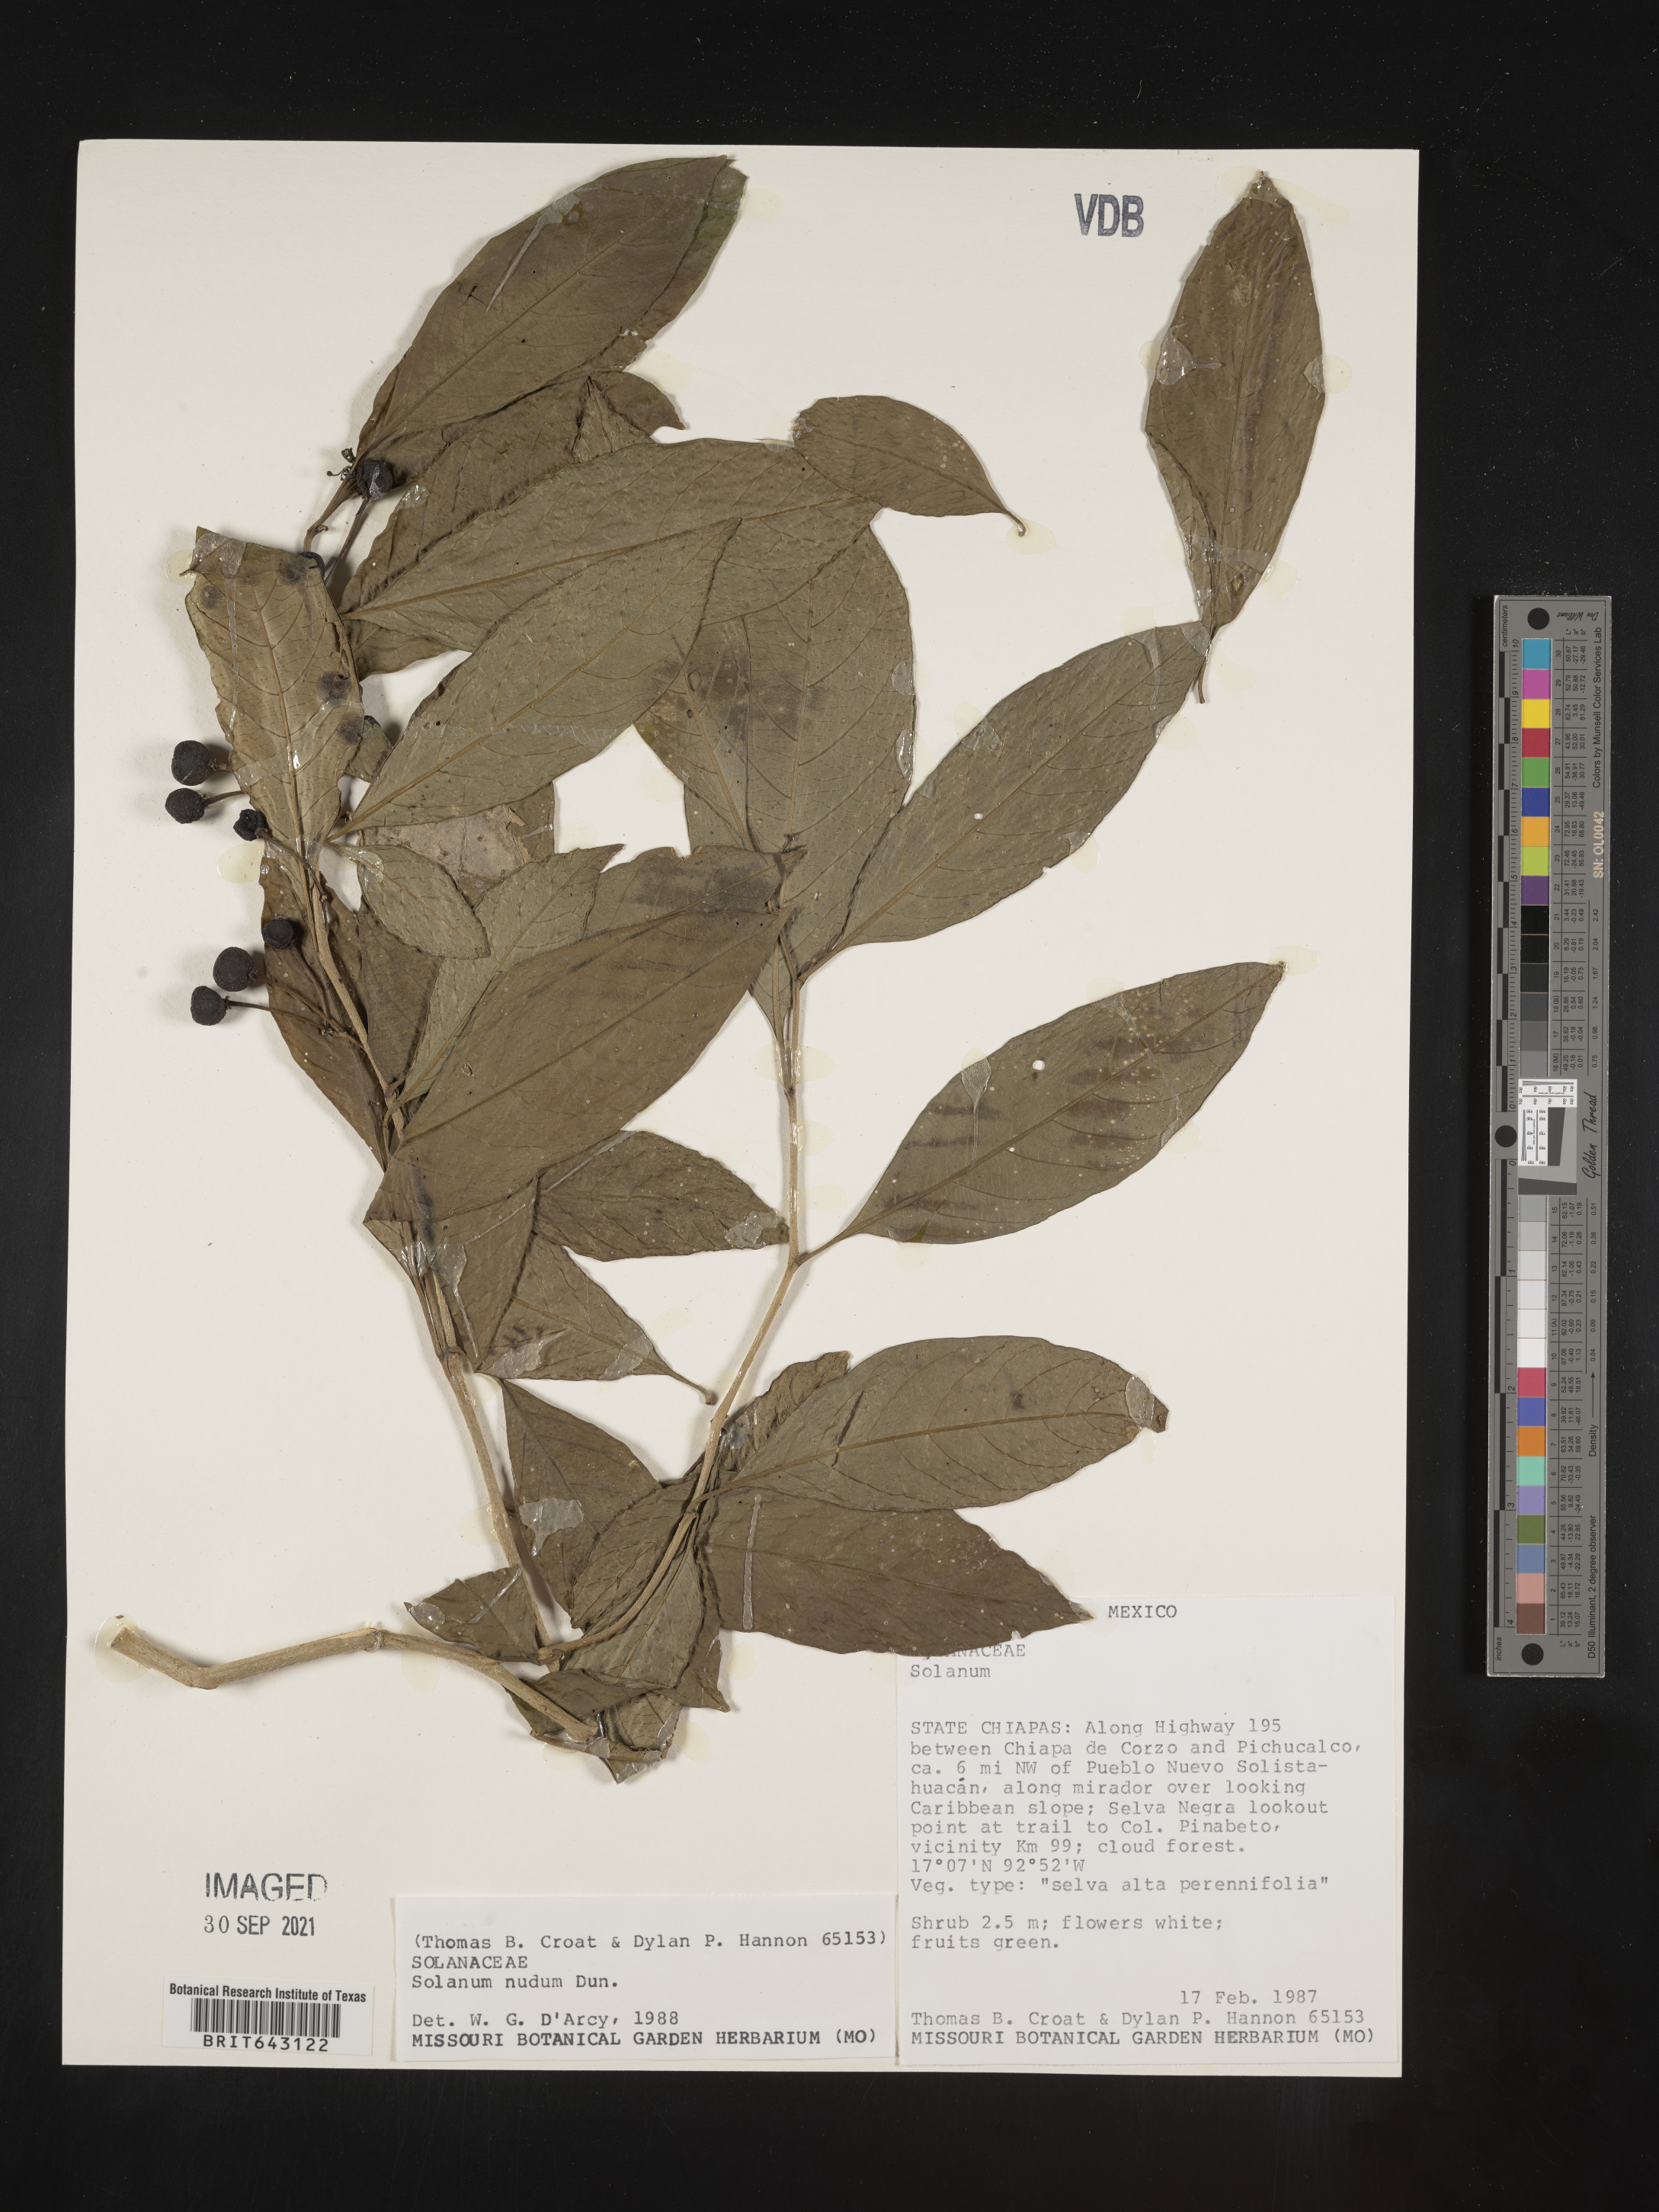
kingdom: Plantae
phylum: Tracheophyta
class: Magnoliopsida
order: Solanales
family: Solanaceae
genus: Solanum
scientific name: Solanum
